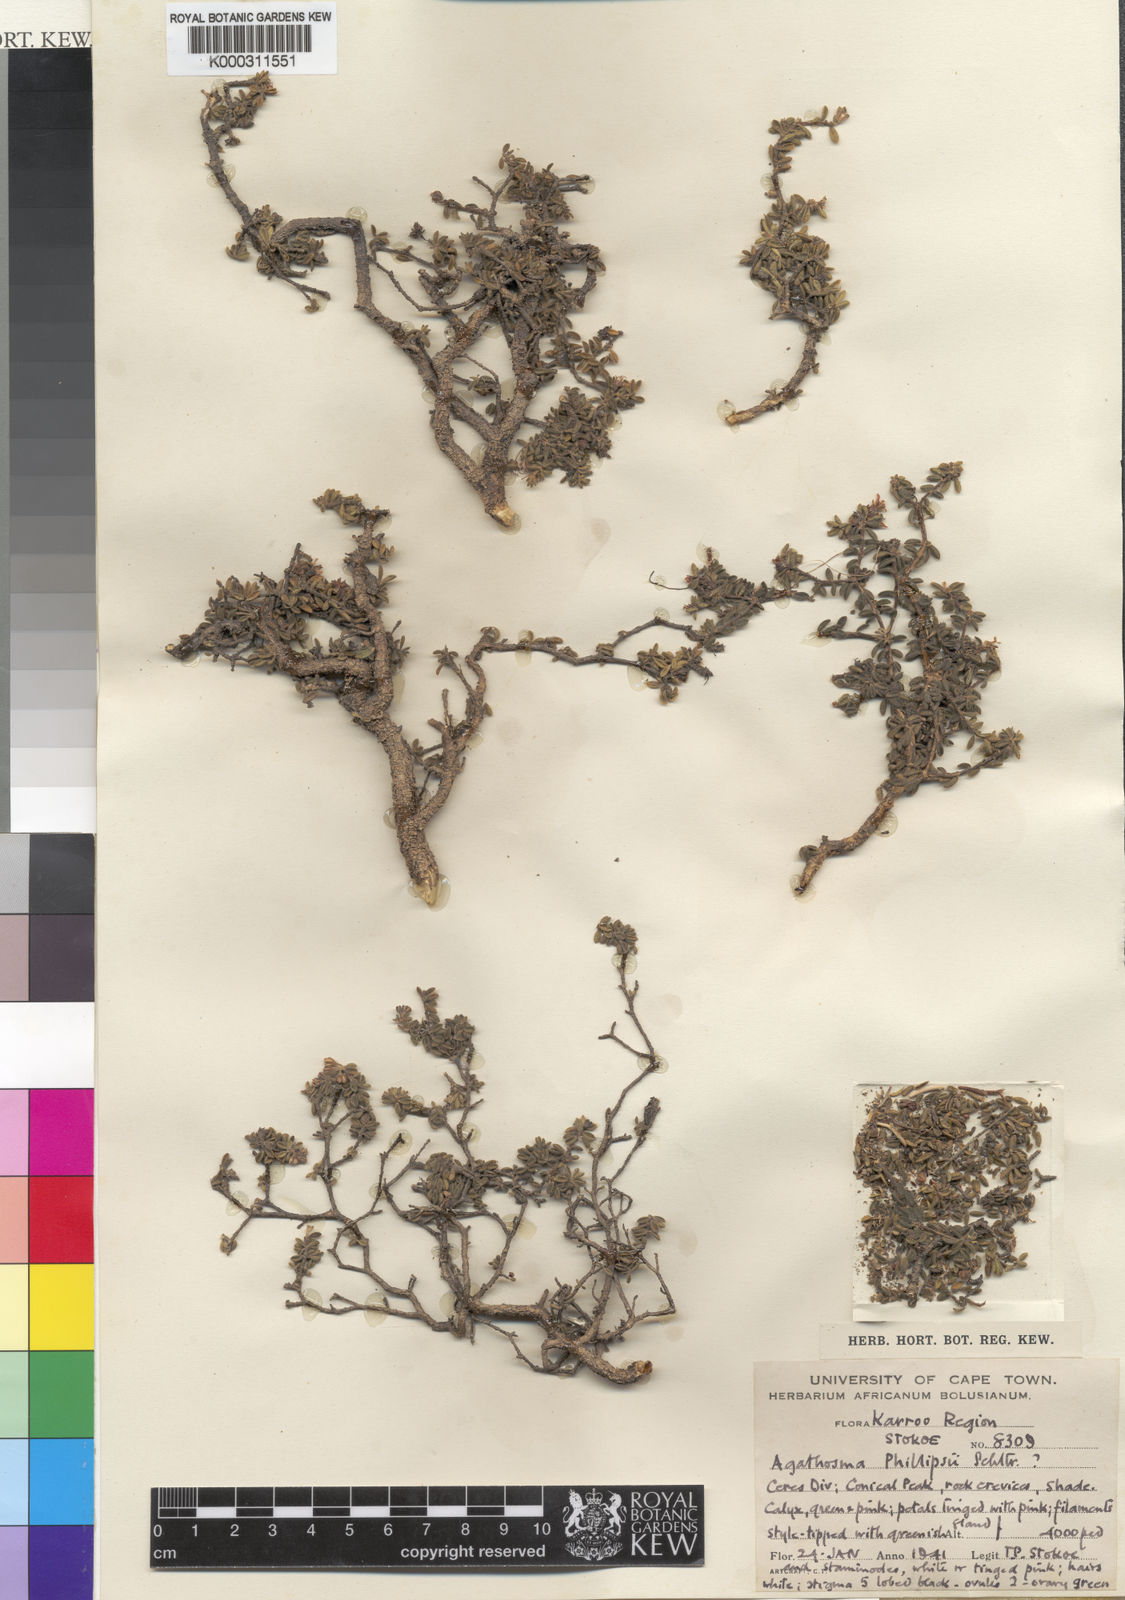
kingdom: Plantae
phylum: Tracheophyta
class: Magnoliopsida
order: Sapindales
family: Rutaceae
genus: Agathosma
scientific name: Agathosma
